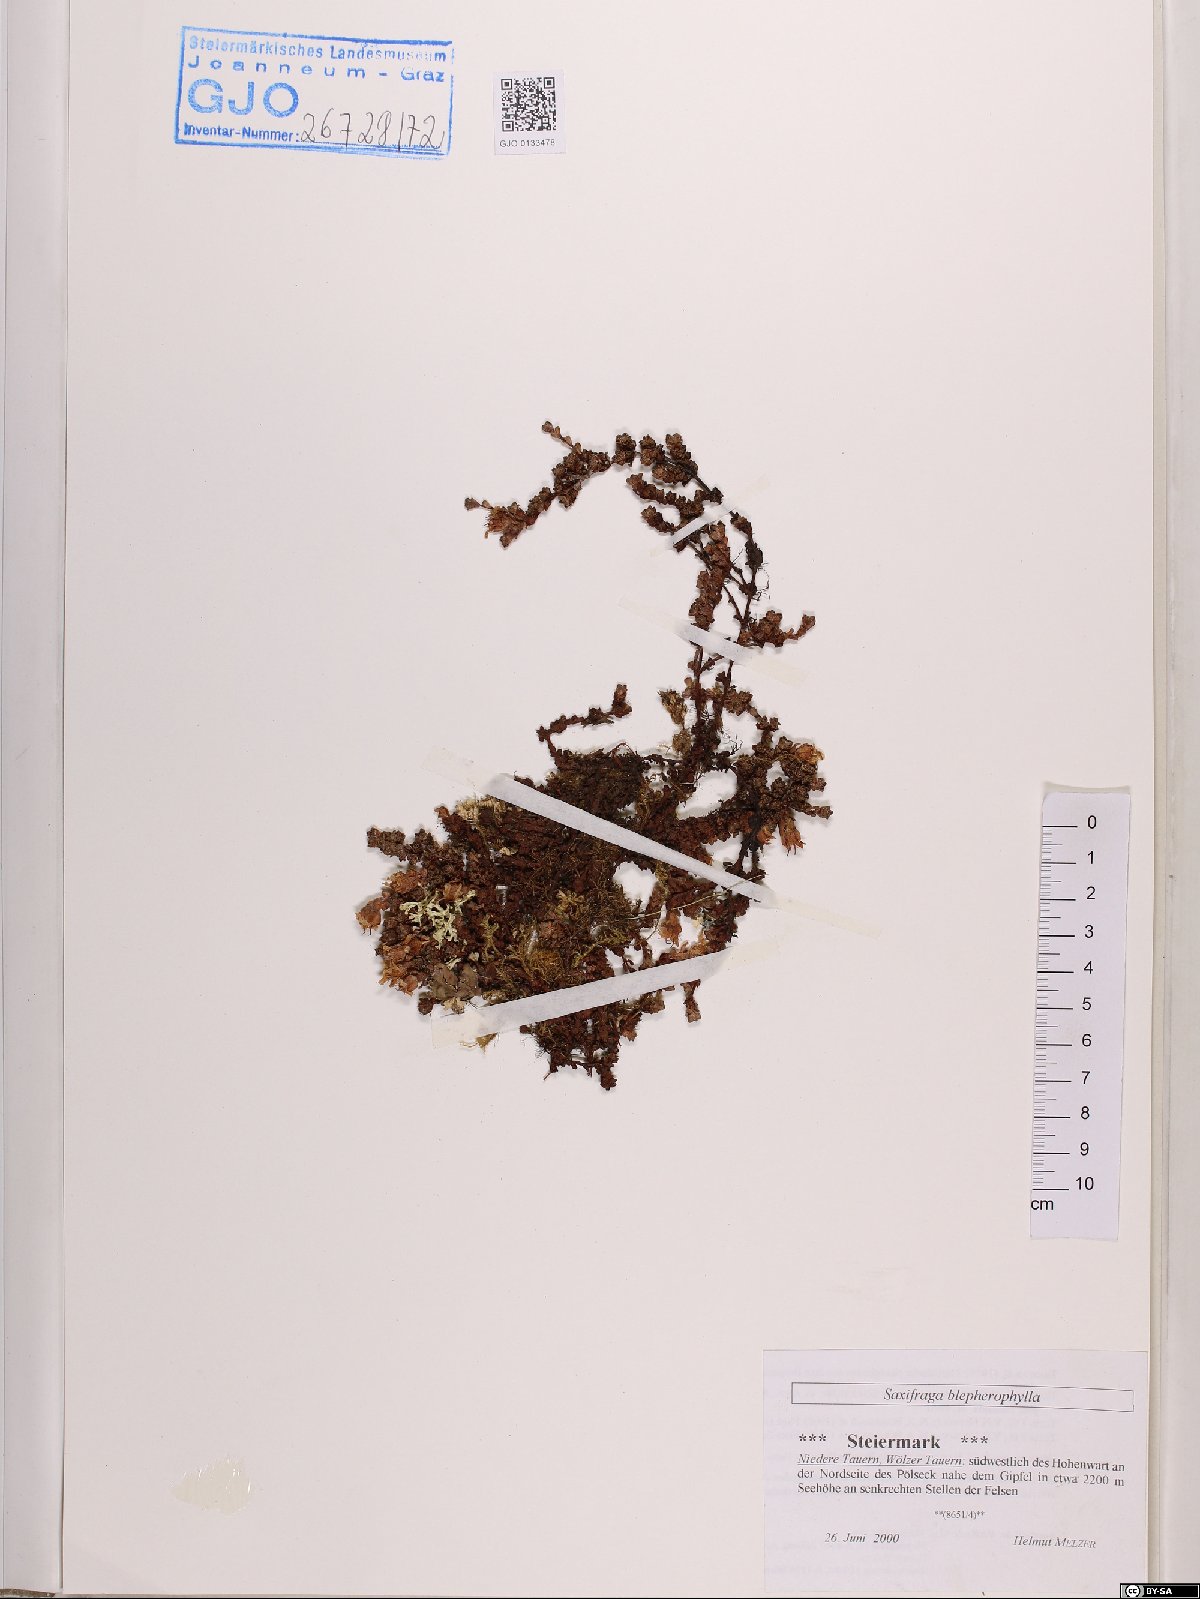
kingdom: Plantae
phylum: Tracheophyta
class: Magnoliopsida
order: Saxifragales
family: Saxifragaceae
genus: Saxifraga
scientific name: Saxifraga oppositifolia
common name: Purple saxifrage
